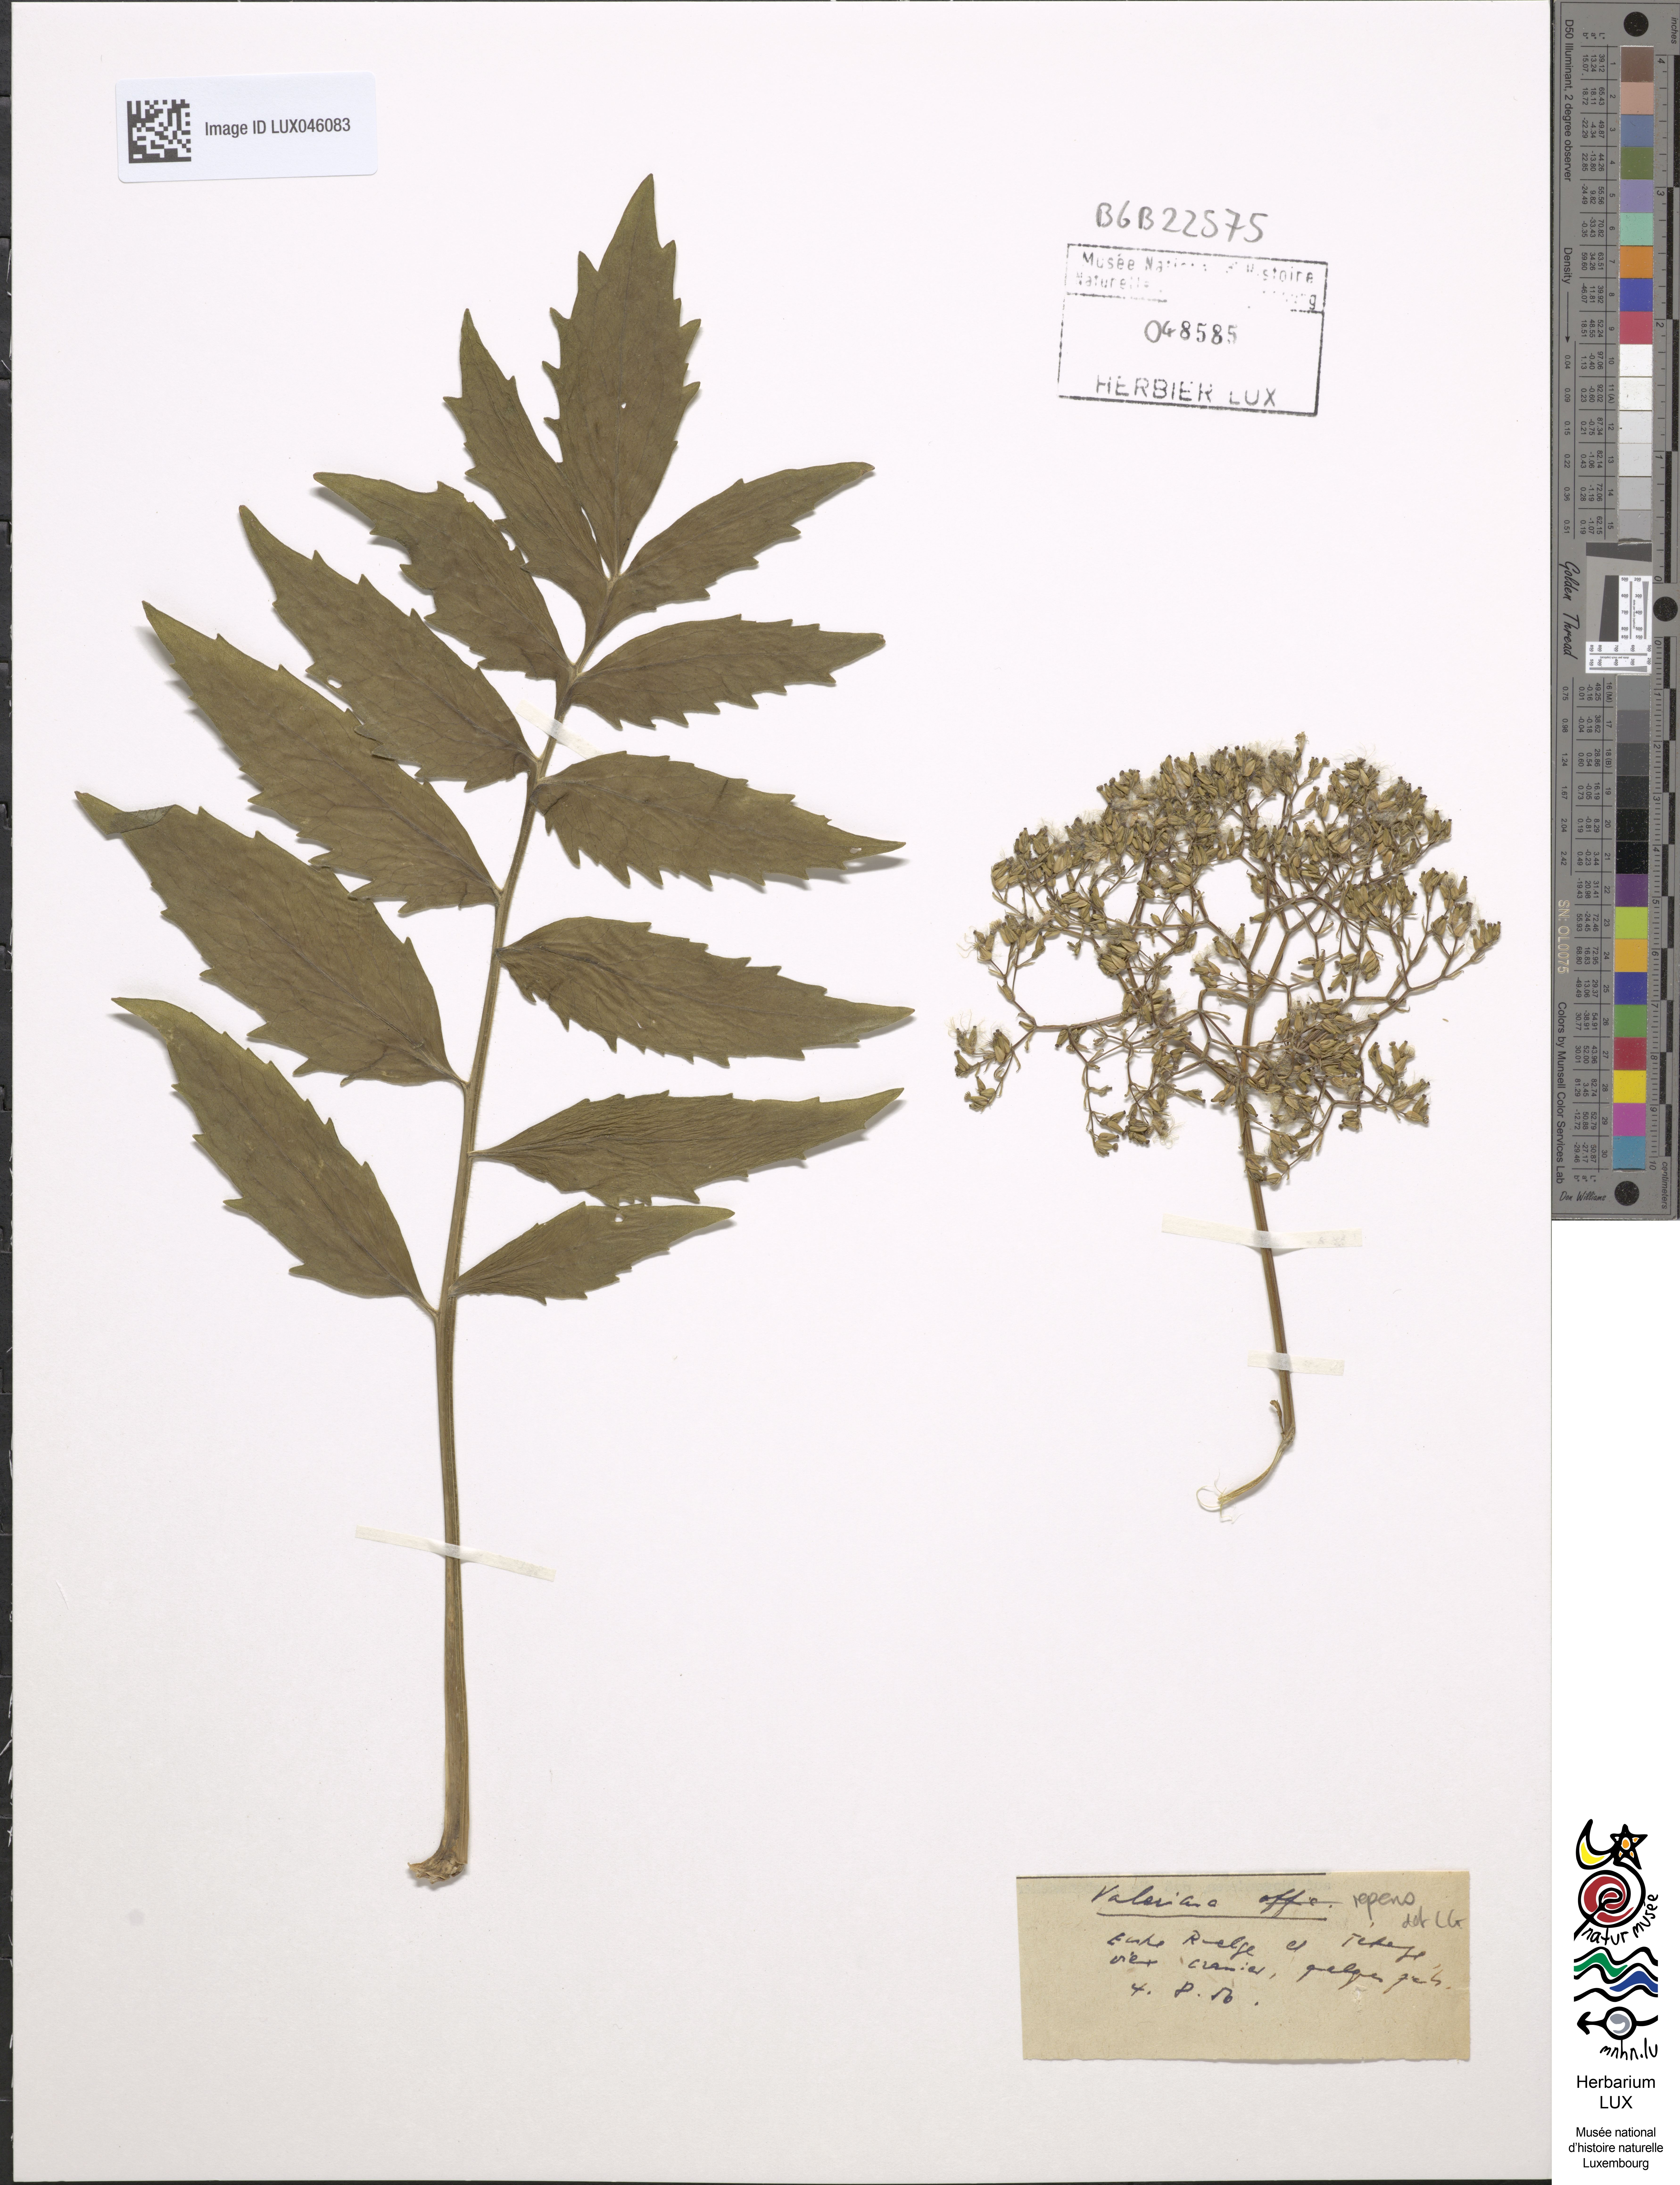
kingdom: Plantae
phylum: Tracheophyta
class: Magnoliopsida
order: Dipsacales
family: Caprifoliaceae
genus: Valeriana
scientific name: Valeriana excelsa
